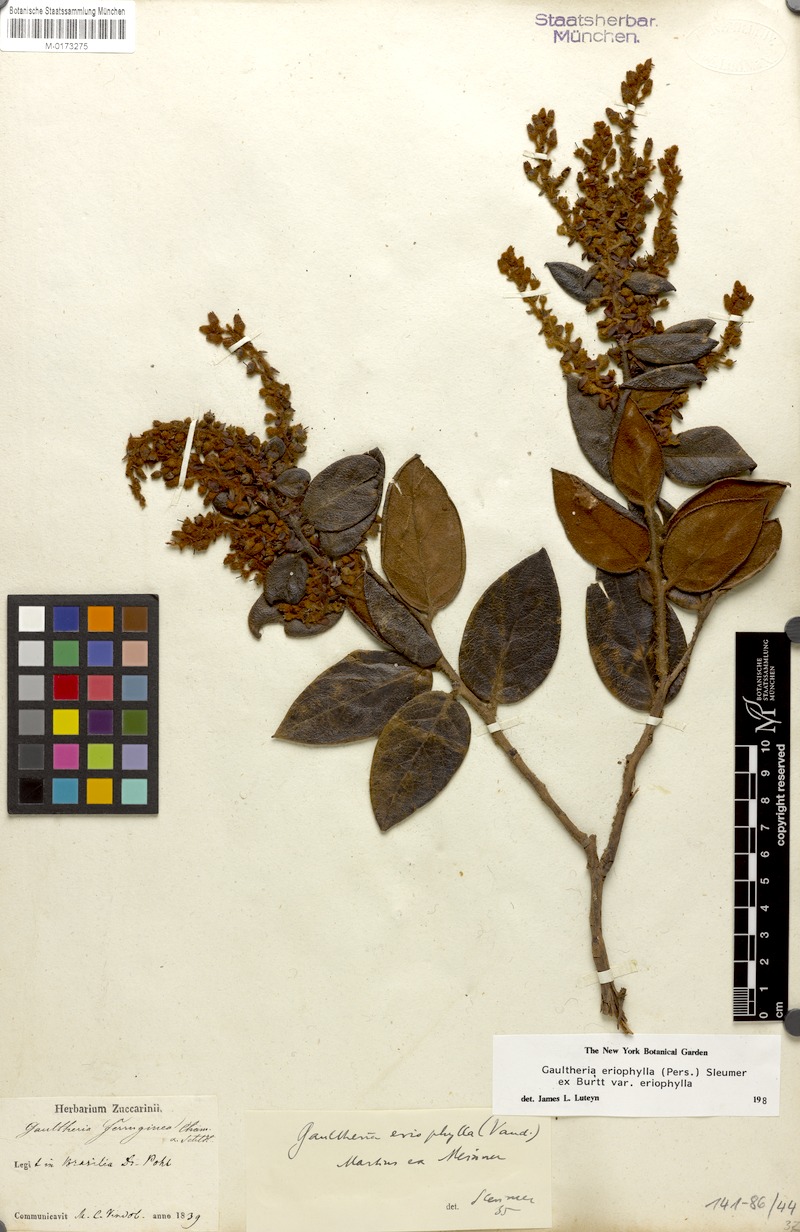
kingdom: Plantae
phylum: Tracheophyta
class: Magnoliopsida
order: Ericales
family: Ericaceae
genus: Gaultheria
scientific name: Gaultheria eriophylla
